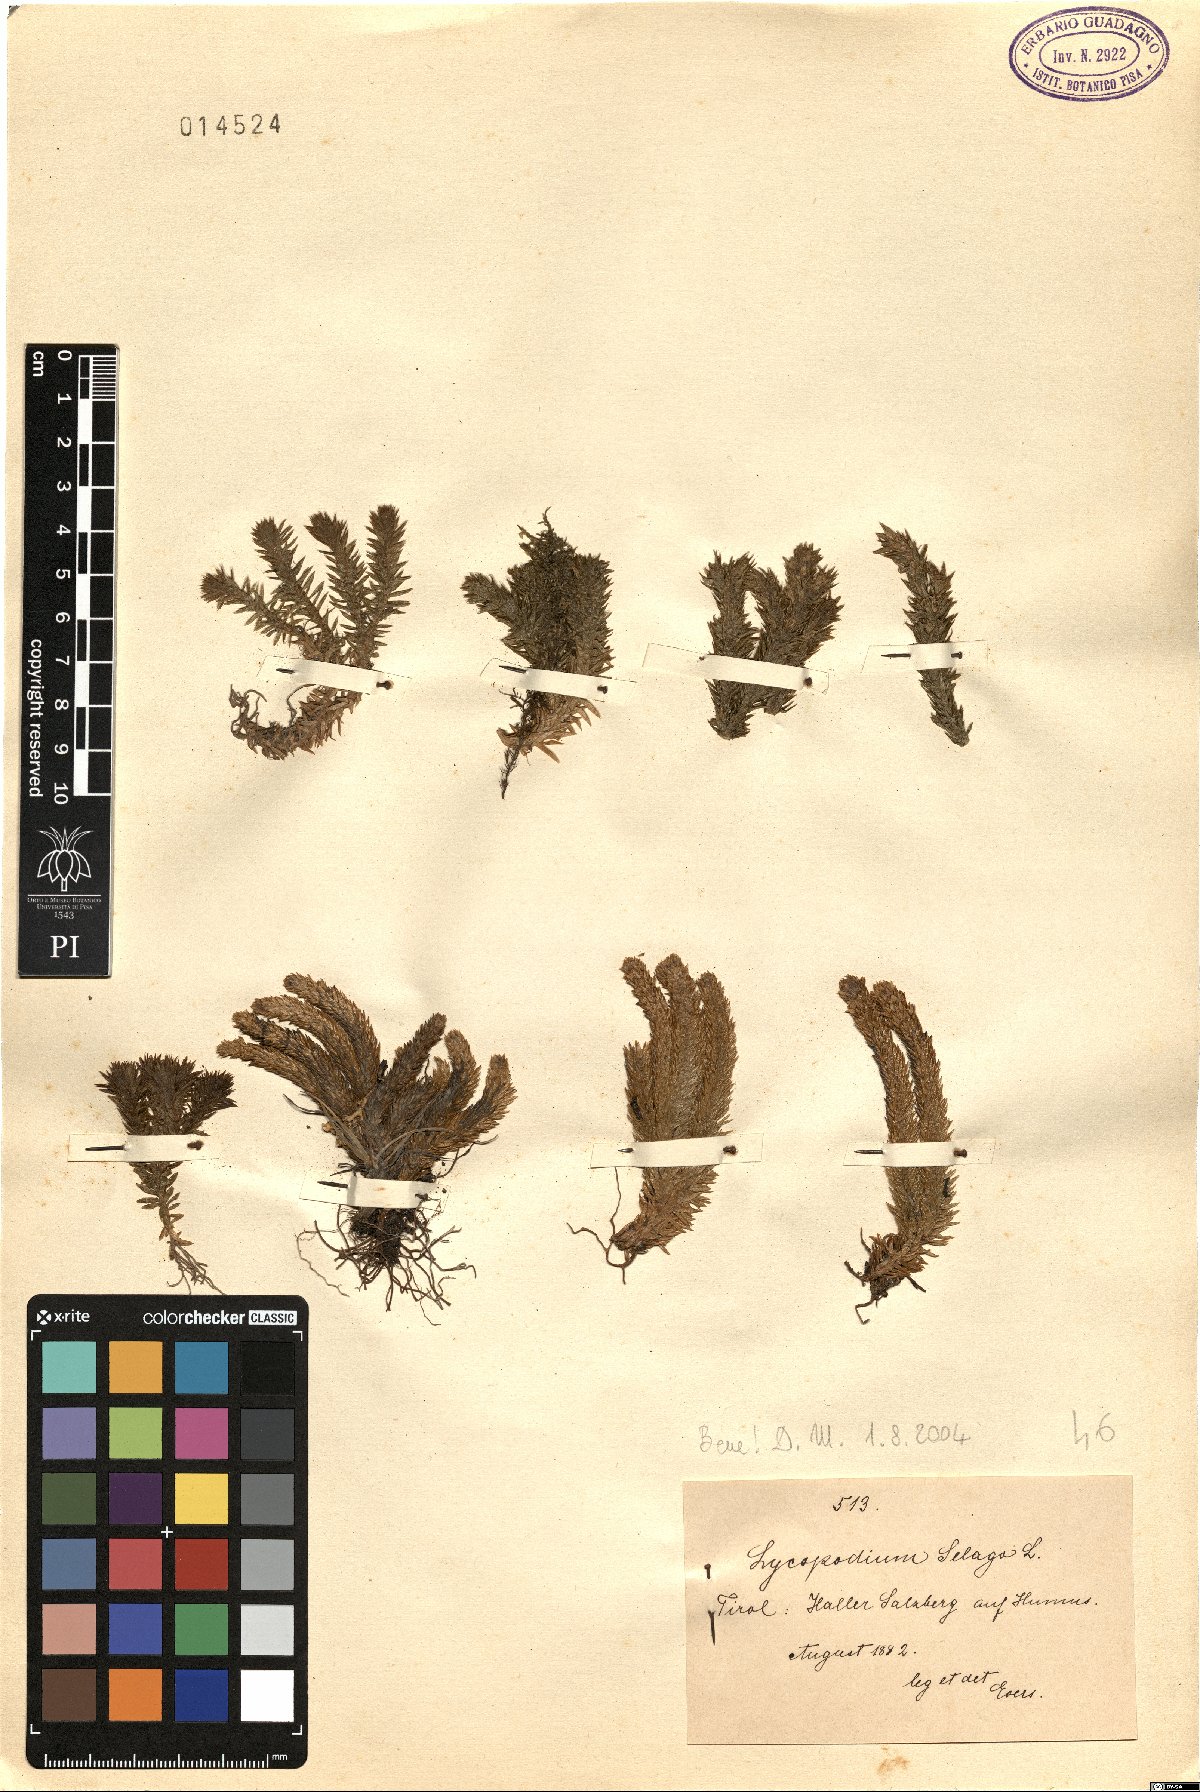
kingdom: Plantae
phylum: Tracheophyta
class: Lycopodiopsida
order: Lycopodiales
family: Lycopodiaceae
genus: Huperzia
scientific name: Huperzia selago
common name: Northern firmoss
